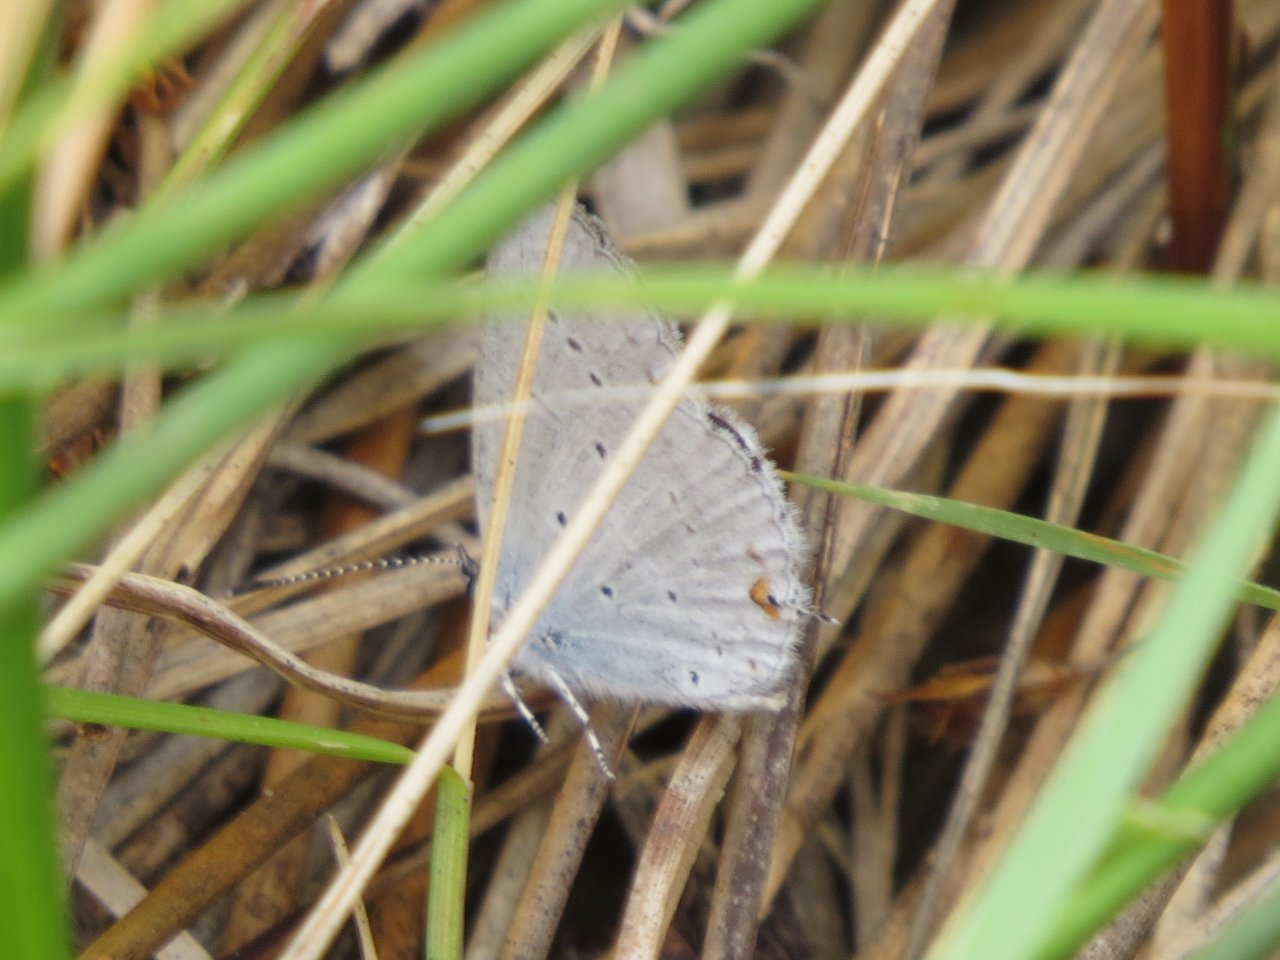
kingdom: Animalia
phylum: Arthropoda
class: Insecta
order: Lepidoptera
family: Lycaenidae
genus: Elkalyce
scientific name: Elkalyce amyntula
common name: Western Tailed-Blue
